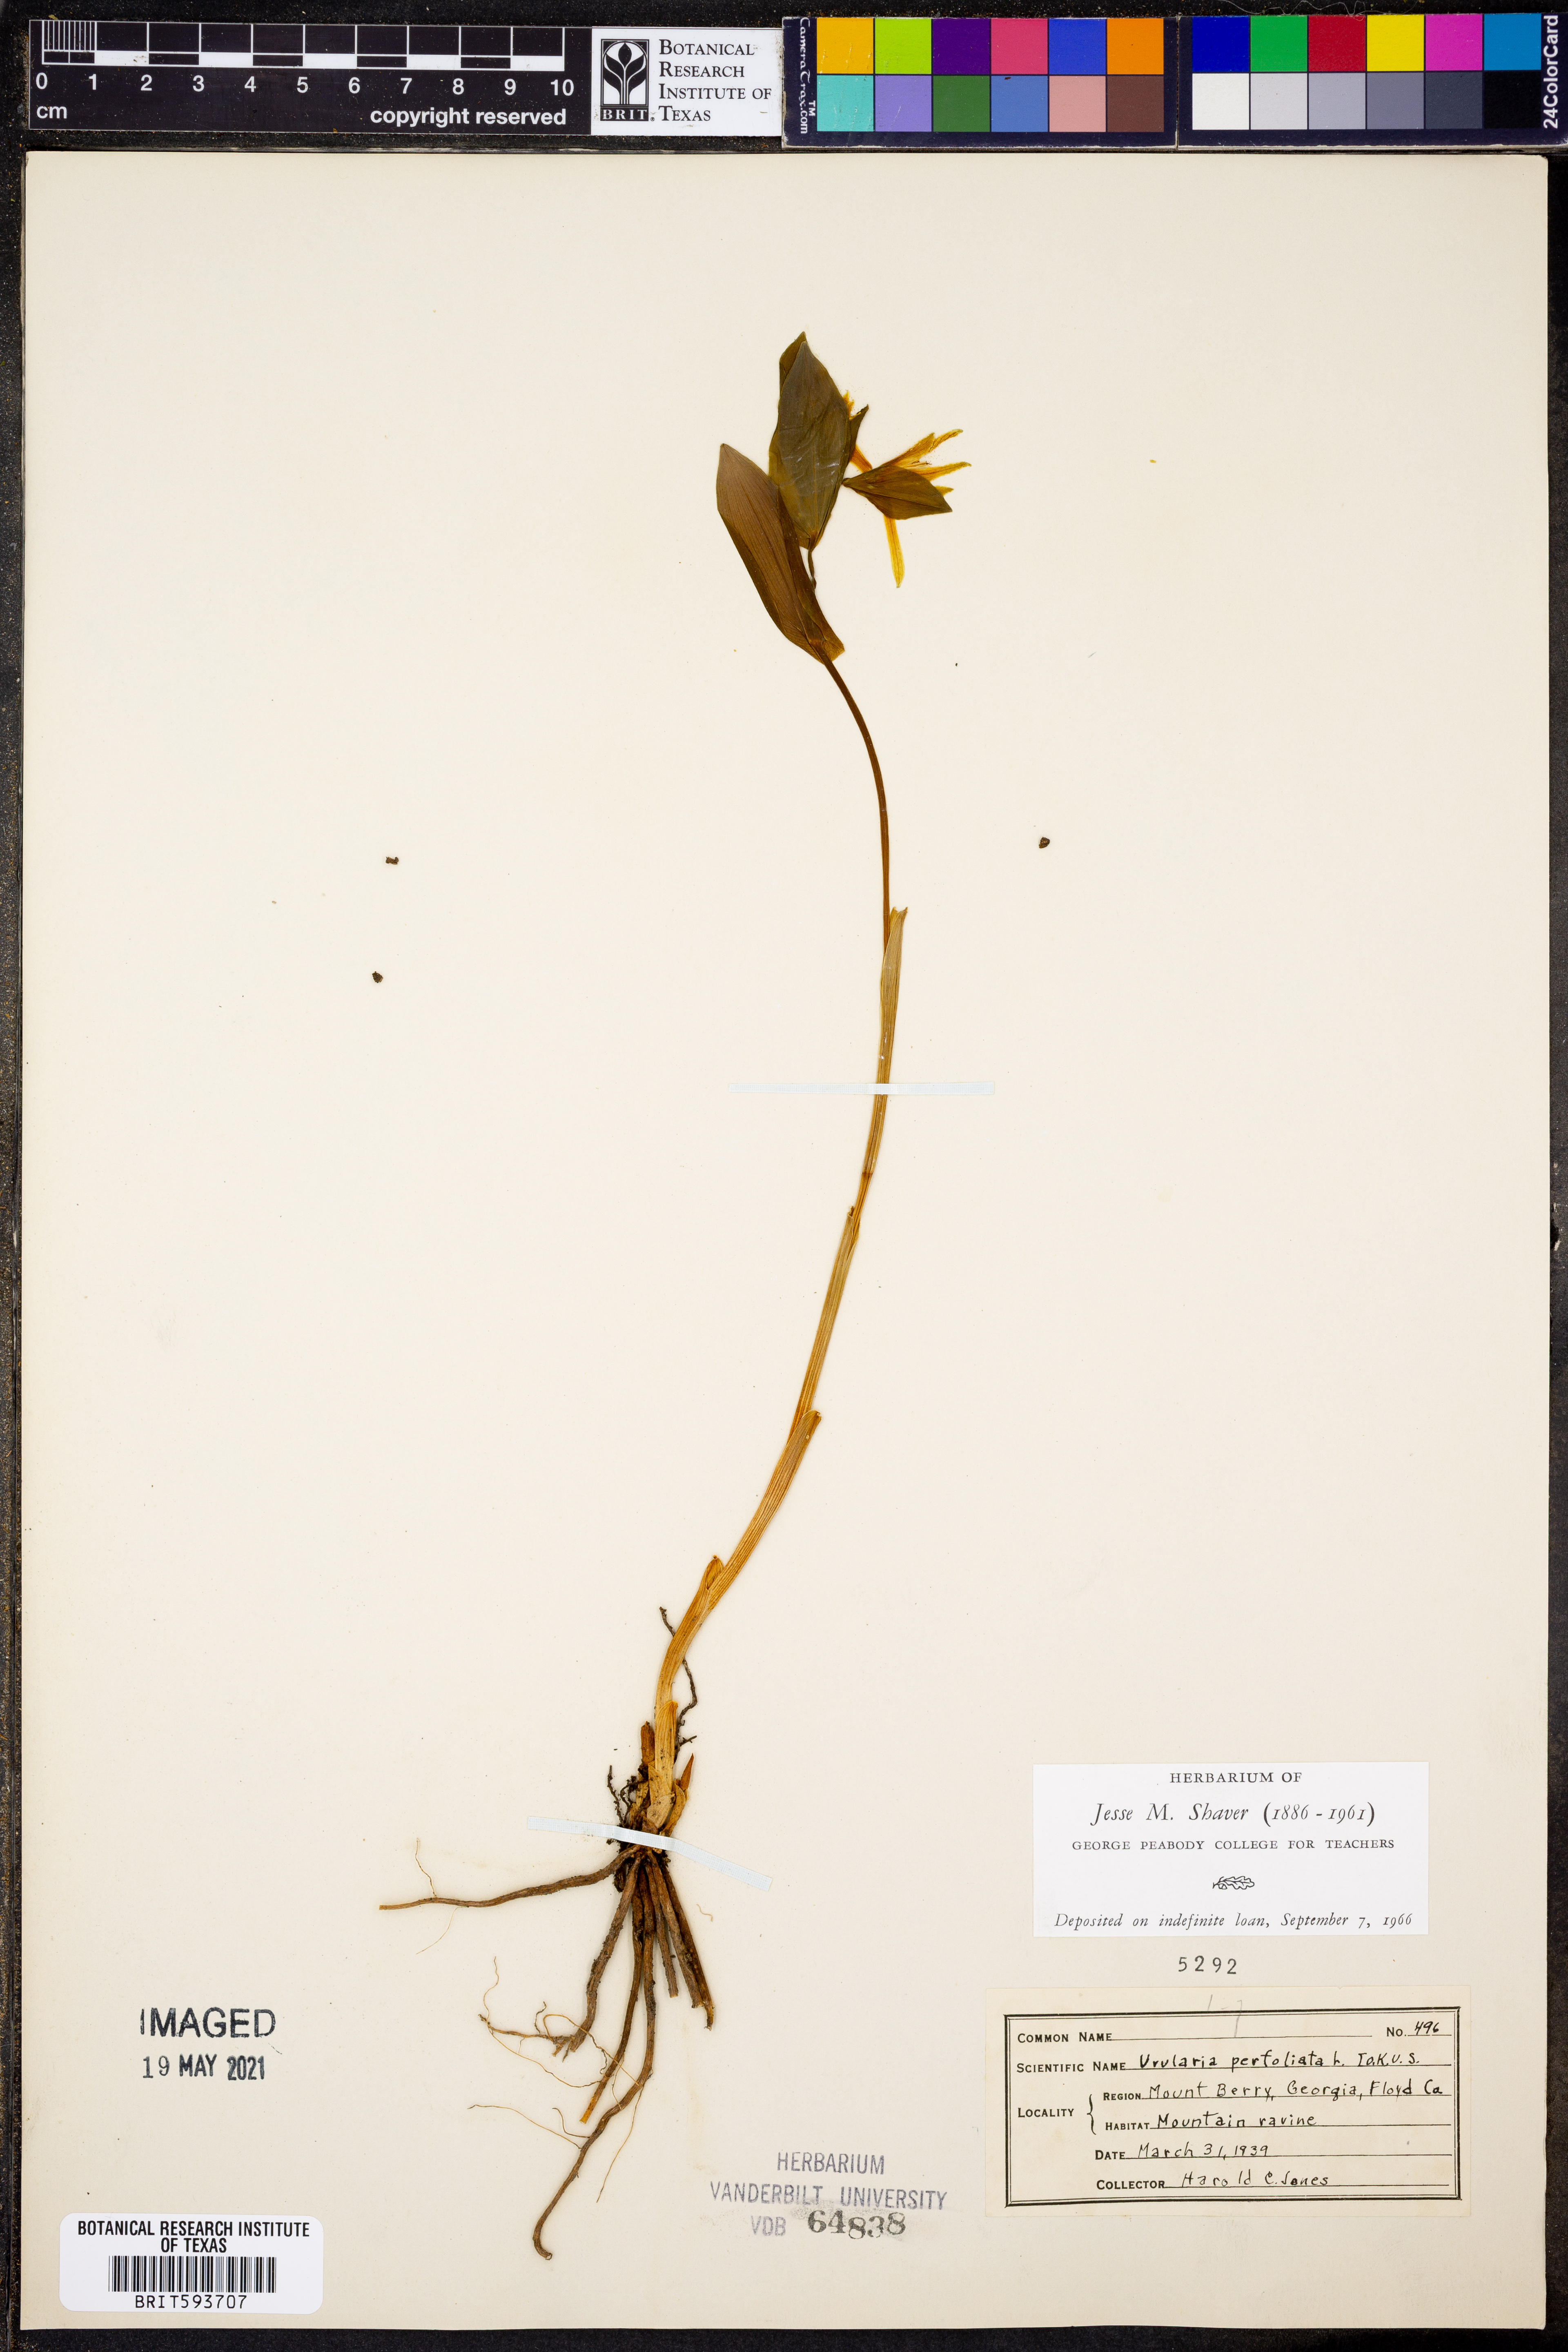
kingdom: Plantae
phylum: Tracheophyta
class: Liliopsida
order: Liliales
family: Colchicaceae
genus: Uvularia
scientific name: Uvularia perfoliata
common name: Perfoliate bellwort
